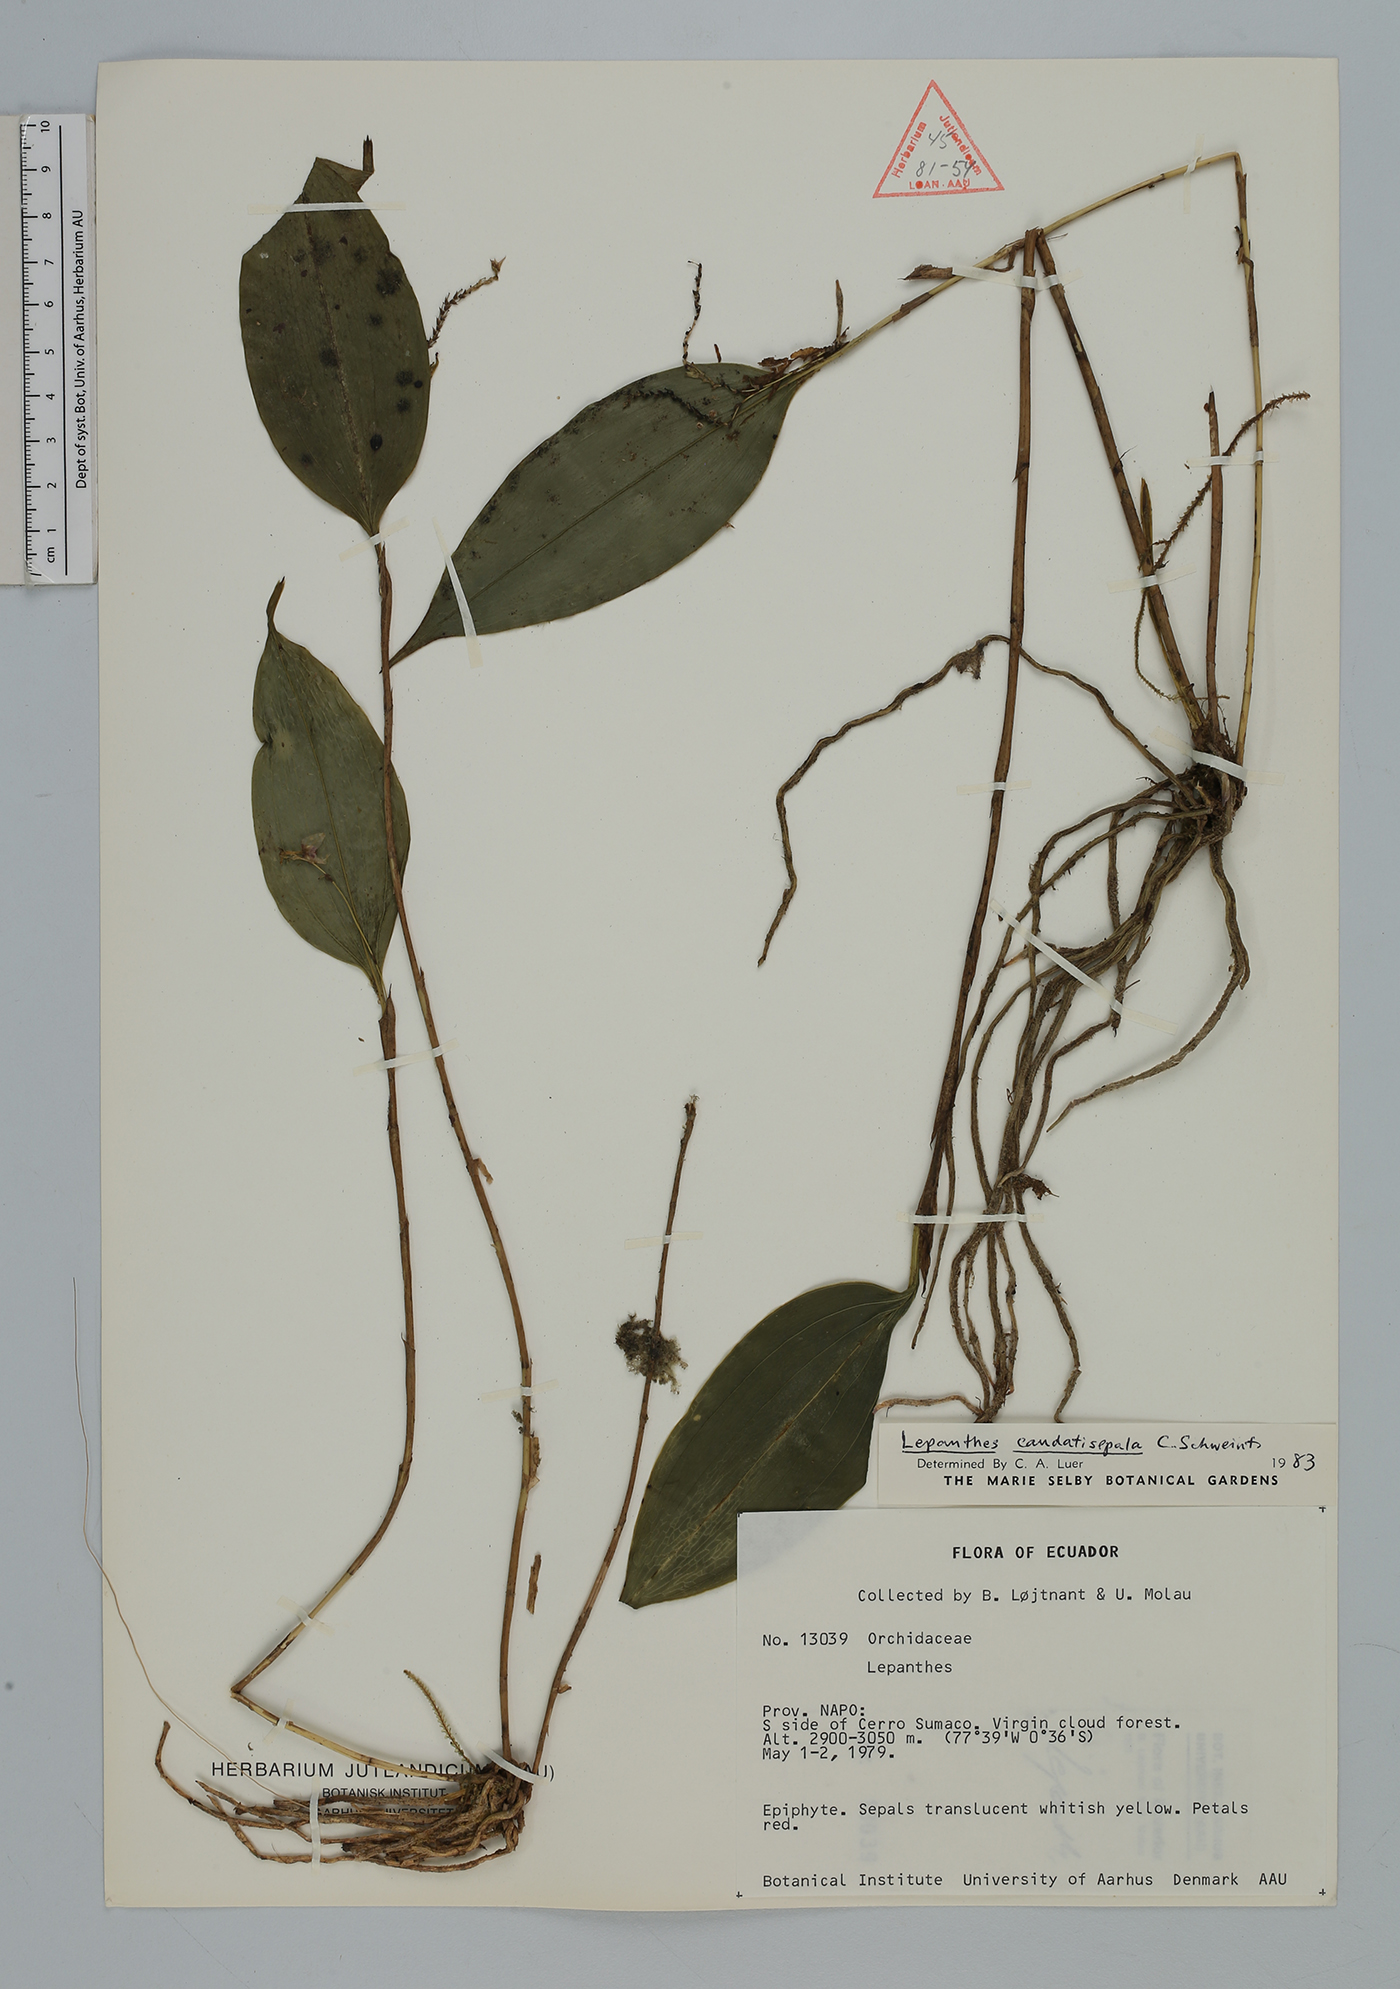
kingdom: Plantae
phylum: Tracheophyta
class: Liliopsida
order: Asparagales
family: Orchidaceae
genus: Lepanthes
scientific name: Lepanthes
